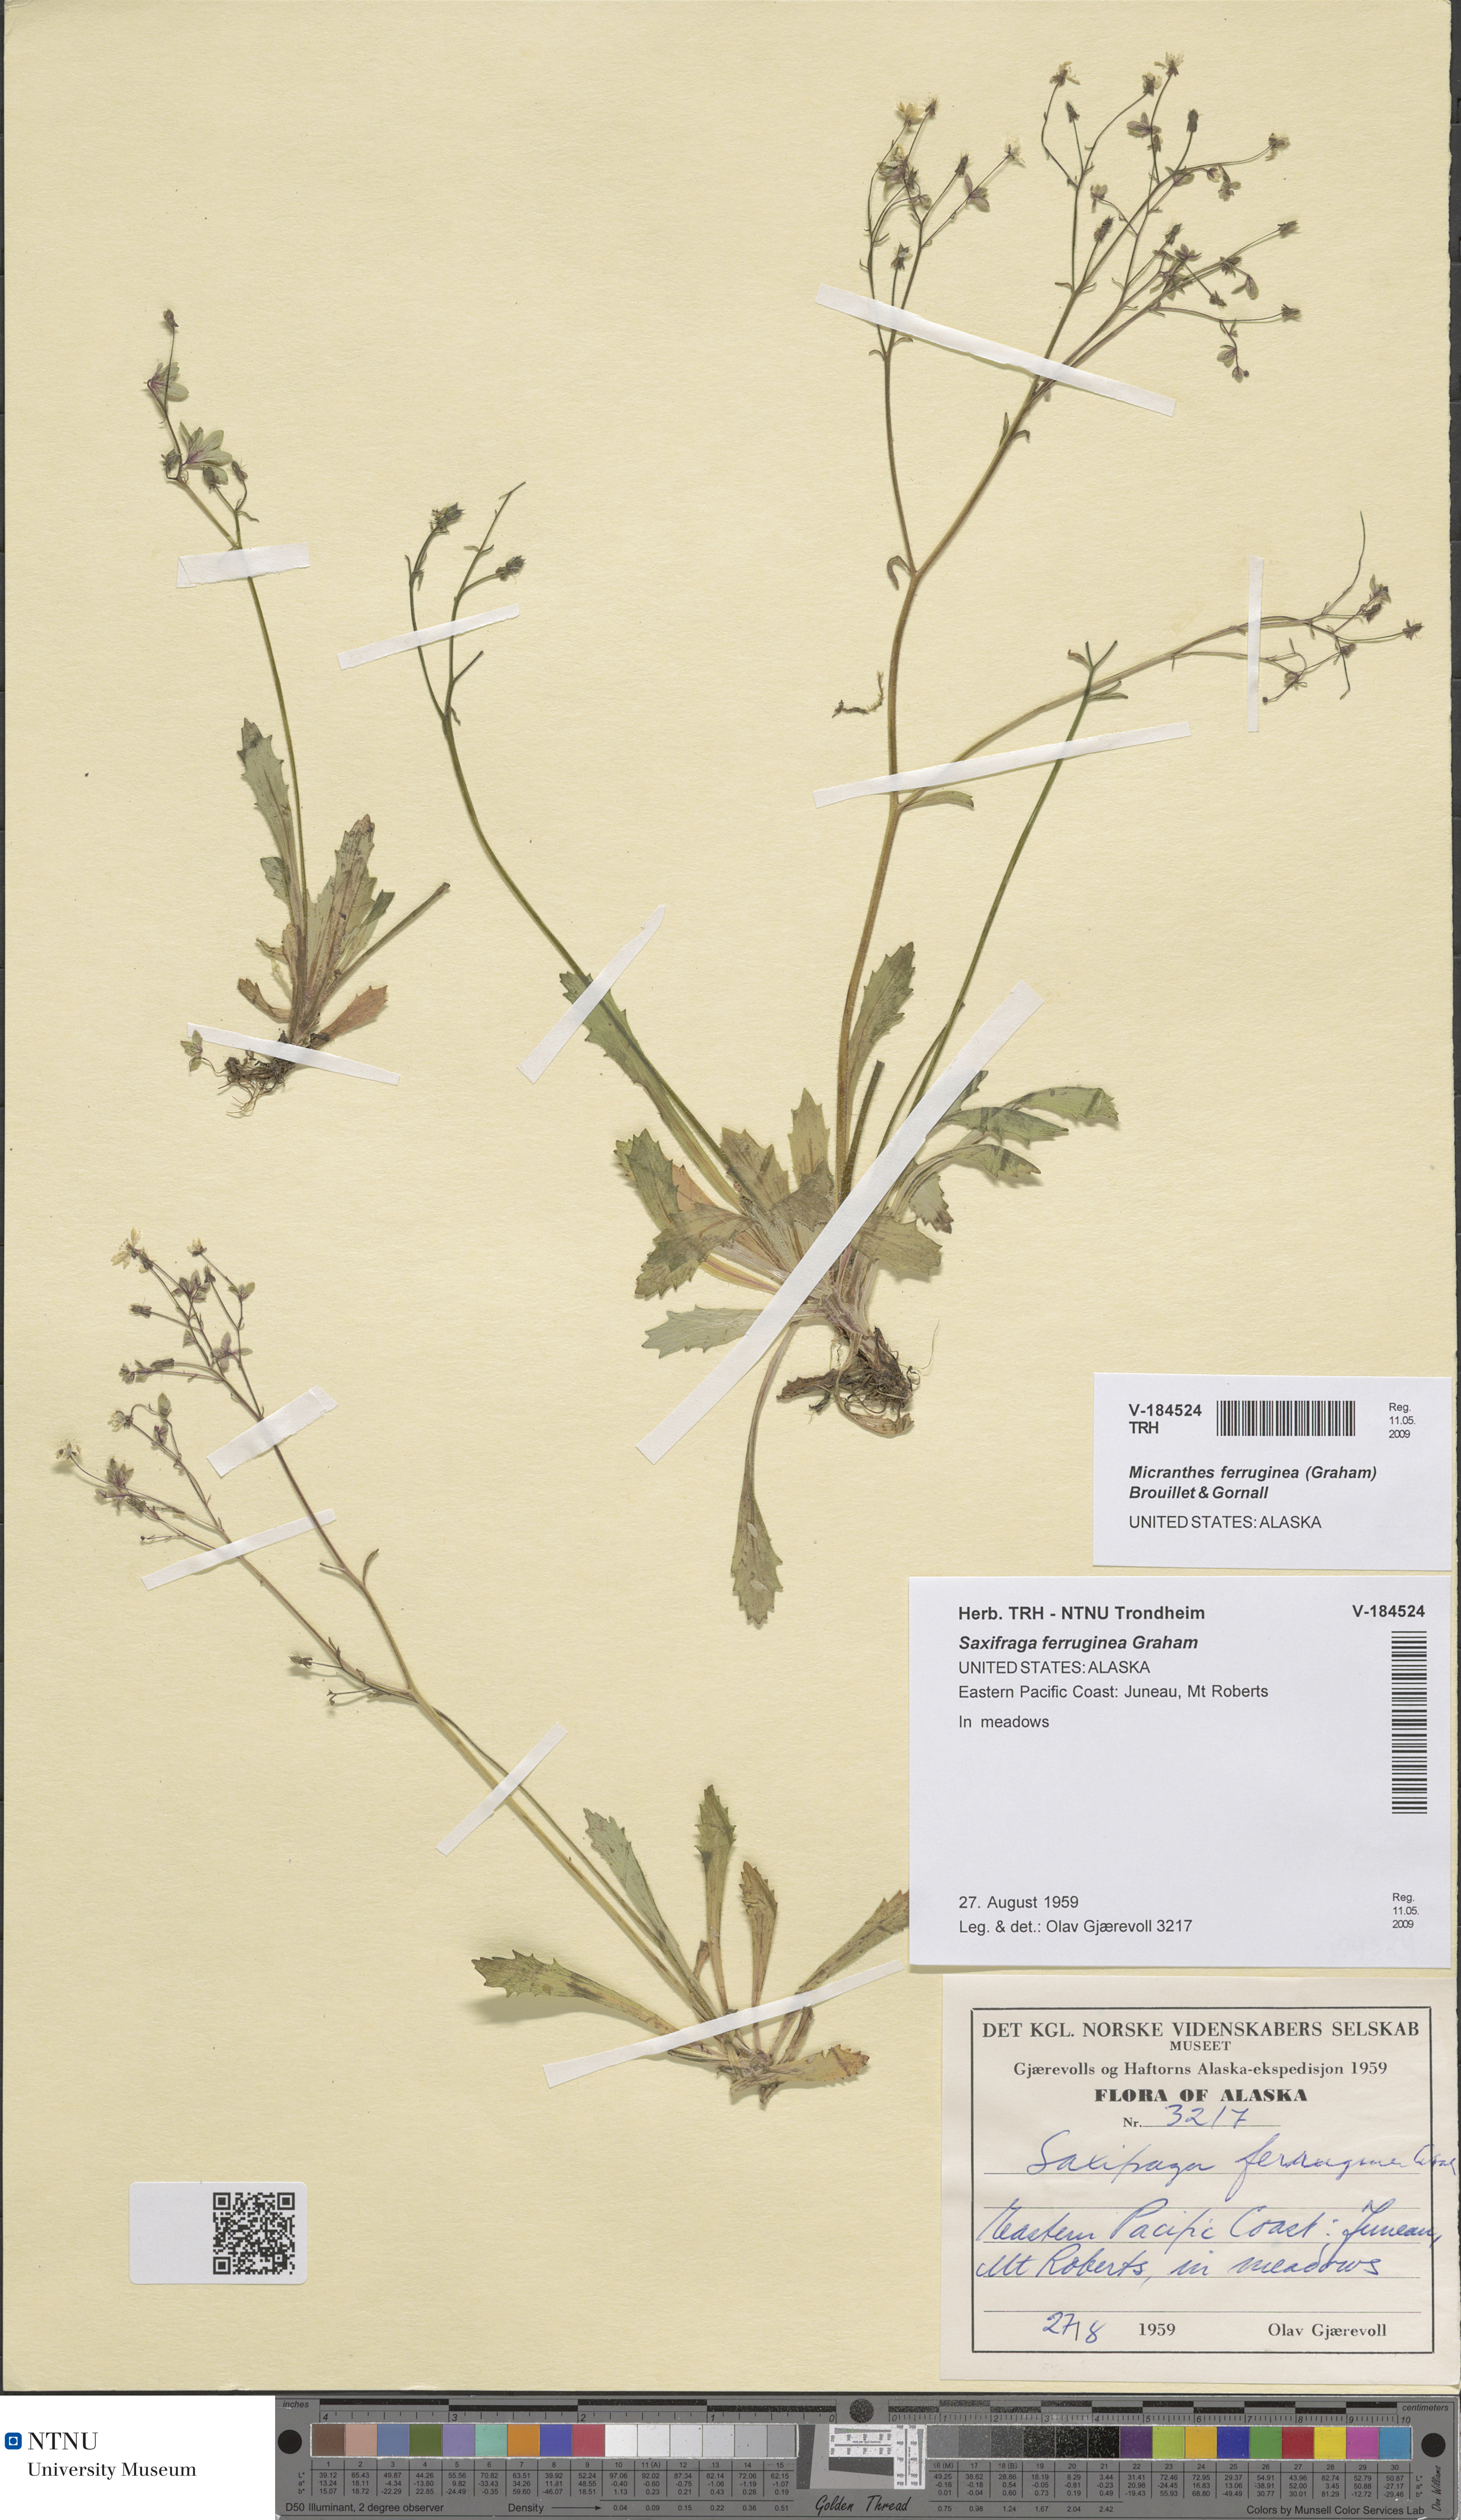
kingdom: Plantae
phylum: Tracheophyta
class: Magnoliopsida
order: Saxifragales
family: Saxifragaceae
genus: Micranthes
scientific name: Micranthes ferruginea
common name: Rusty saxifrage
